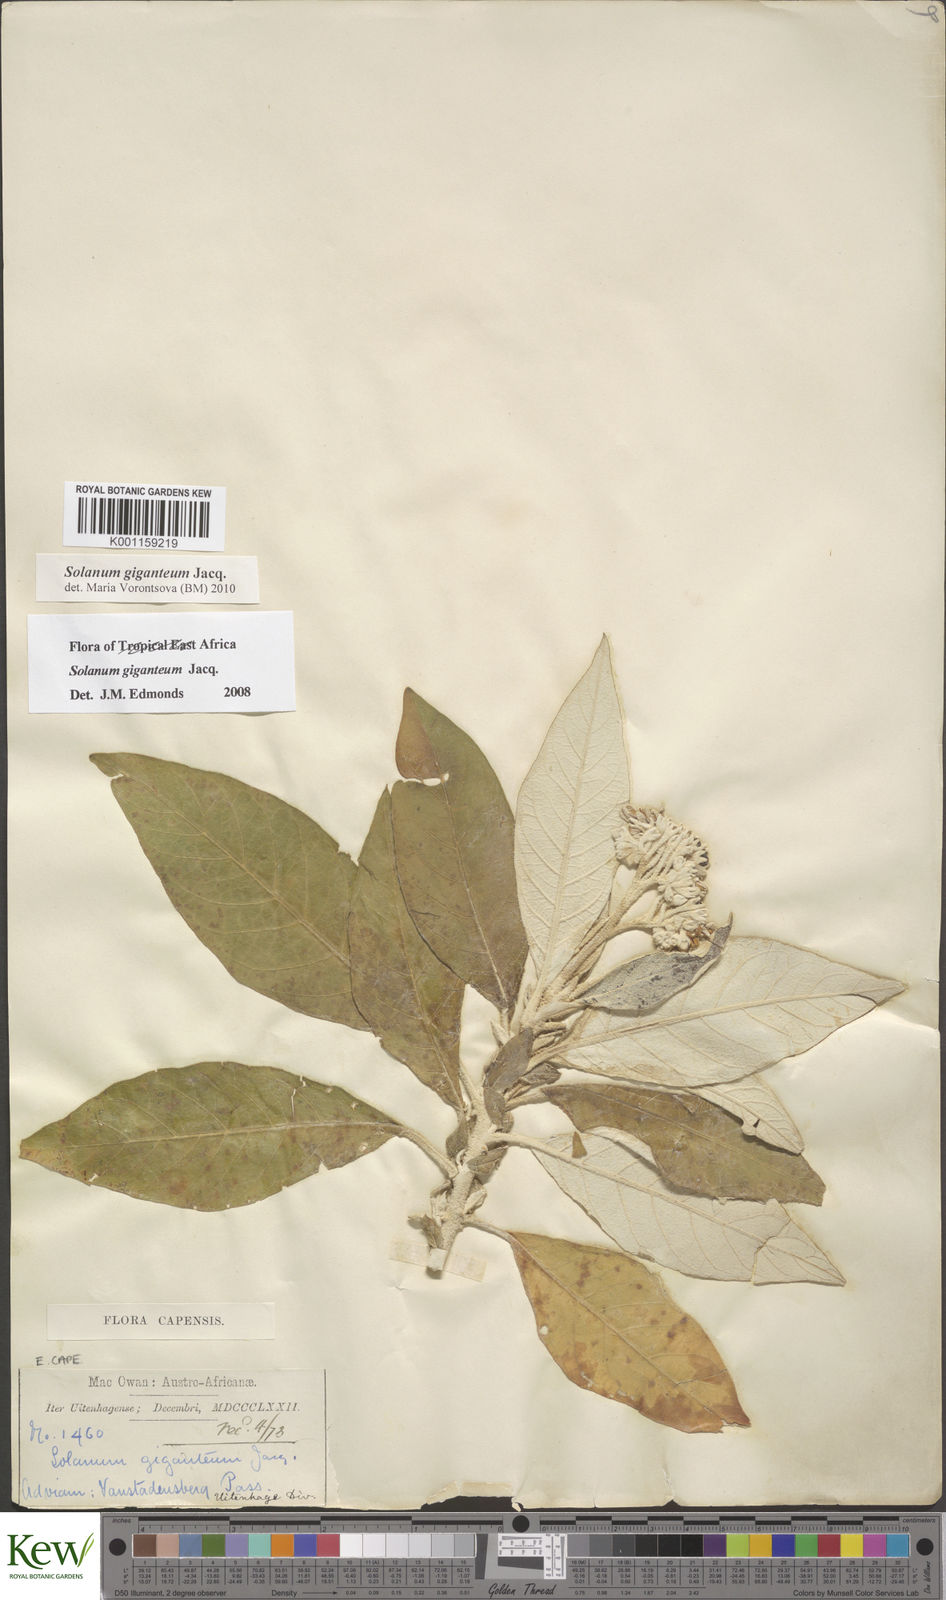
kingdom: Plantae
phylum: Tracheophyta
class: Magnoliopsida
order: Solanales
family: Solanaceae
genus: Solanum
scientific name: Solanum giganteum
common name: Healing-leaf-tree
